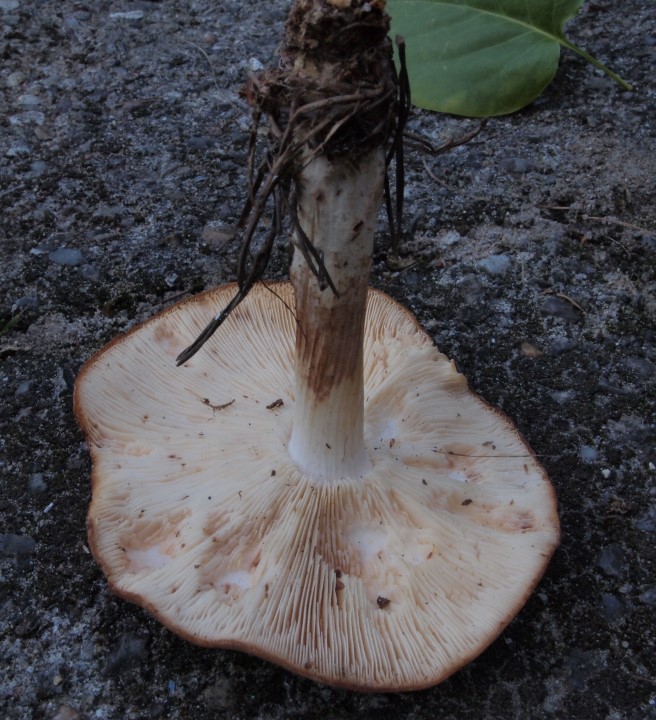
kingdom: Fungi
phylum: Basidiomycota
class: Agaricomycetes
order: Agaricales
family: Omphalotaceae
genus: Rhodocollybia
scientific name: Rhodocollybia maculata
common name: plettet fladhat
